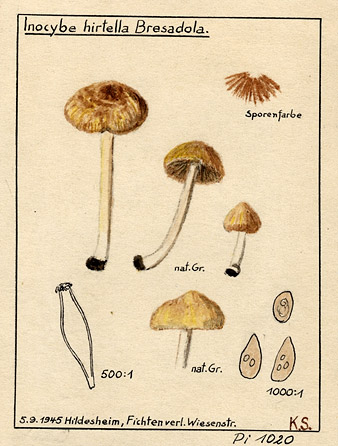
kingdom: Fungi
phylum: Basidiomycota
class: Agaricomycetes
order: Agaricales
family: Inocybaceae
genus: Inocybe
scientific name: Inocybe hirtella
